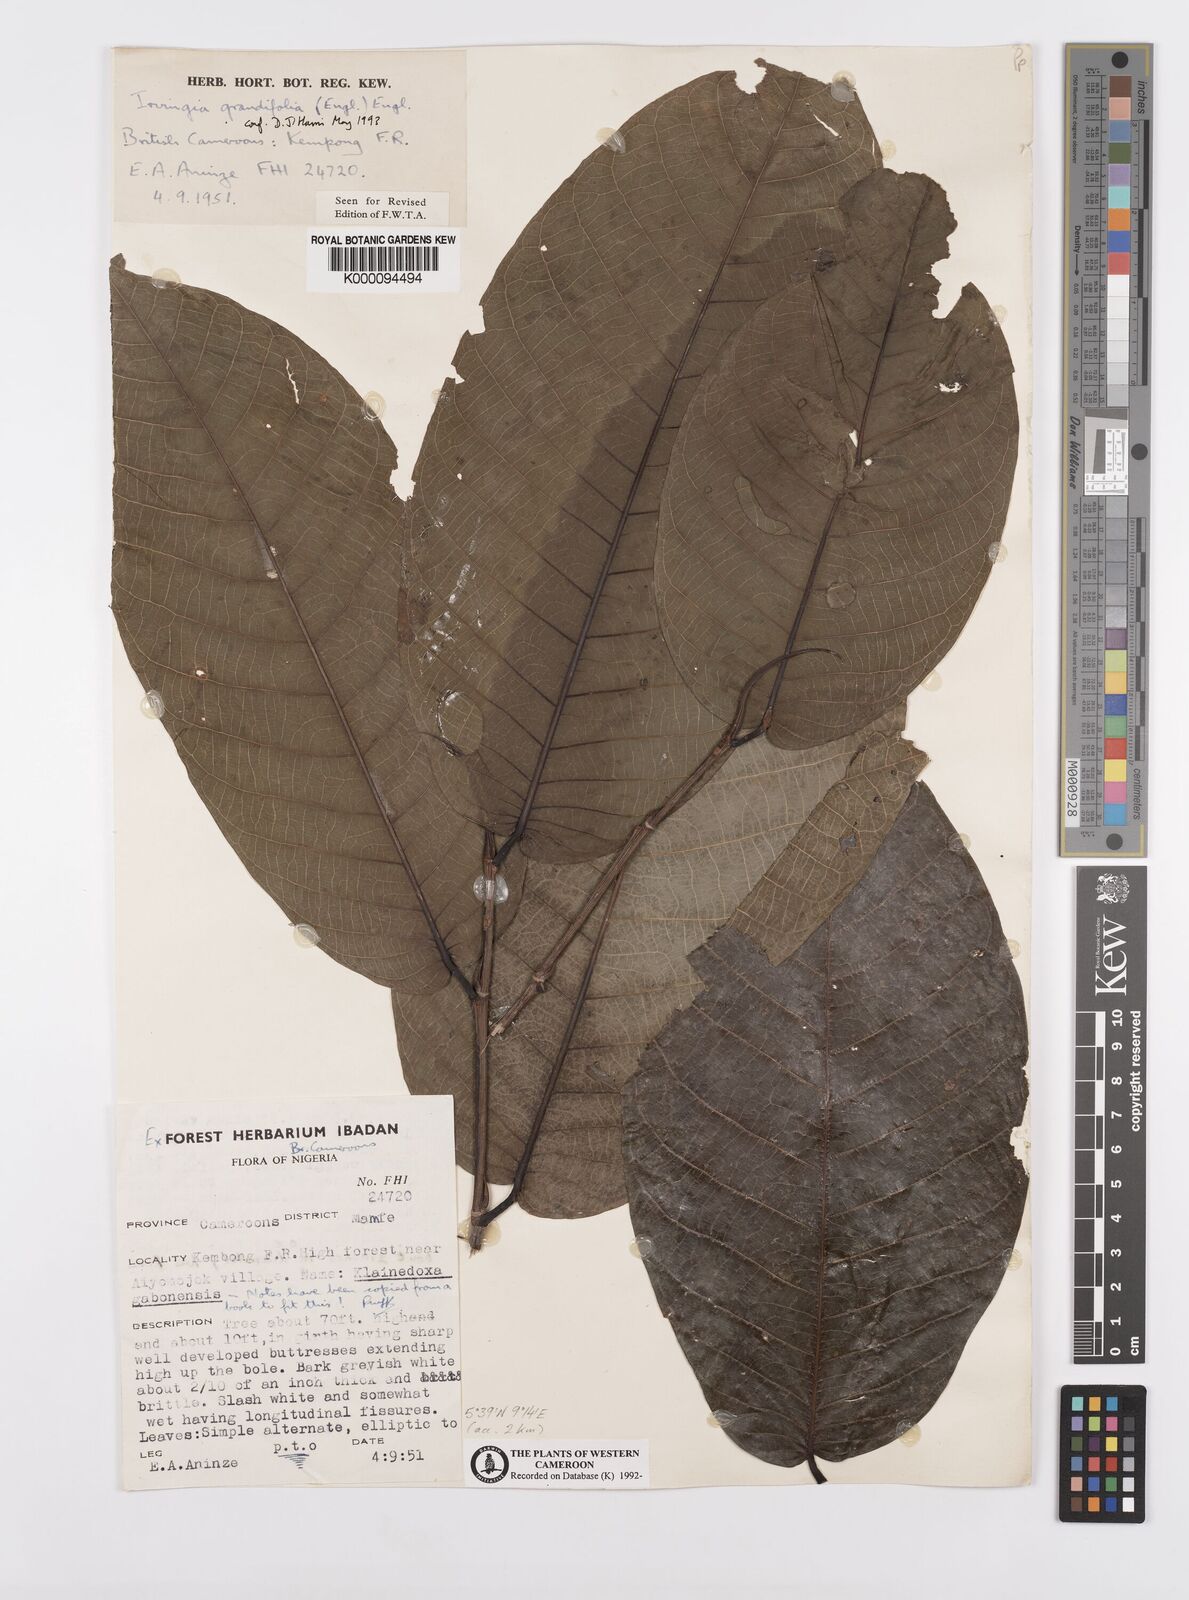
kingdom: Plantae
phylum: Tracheophyta
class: Magnoliopsida
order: Malpighiales
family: Irvingiaceae
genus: Irvingia
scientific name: Irvingia grandifolia
